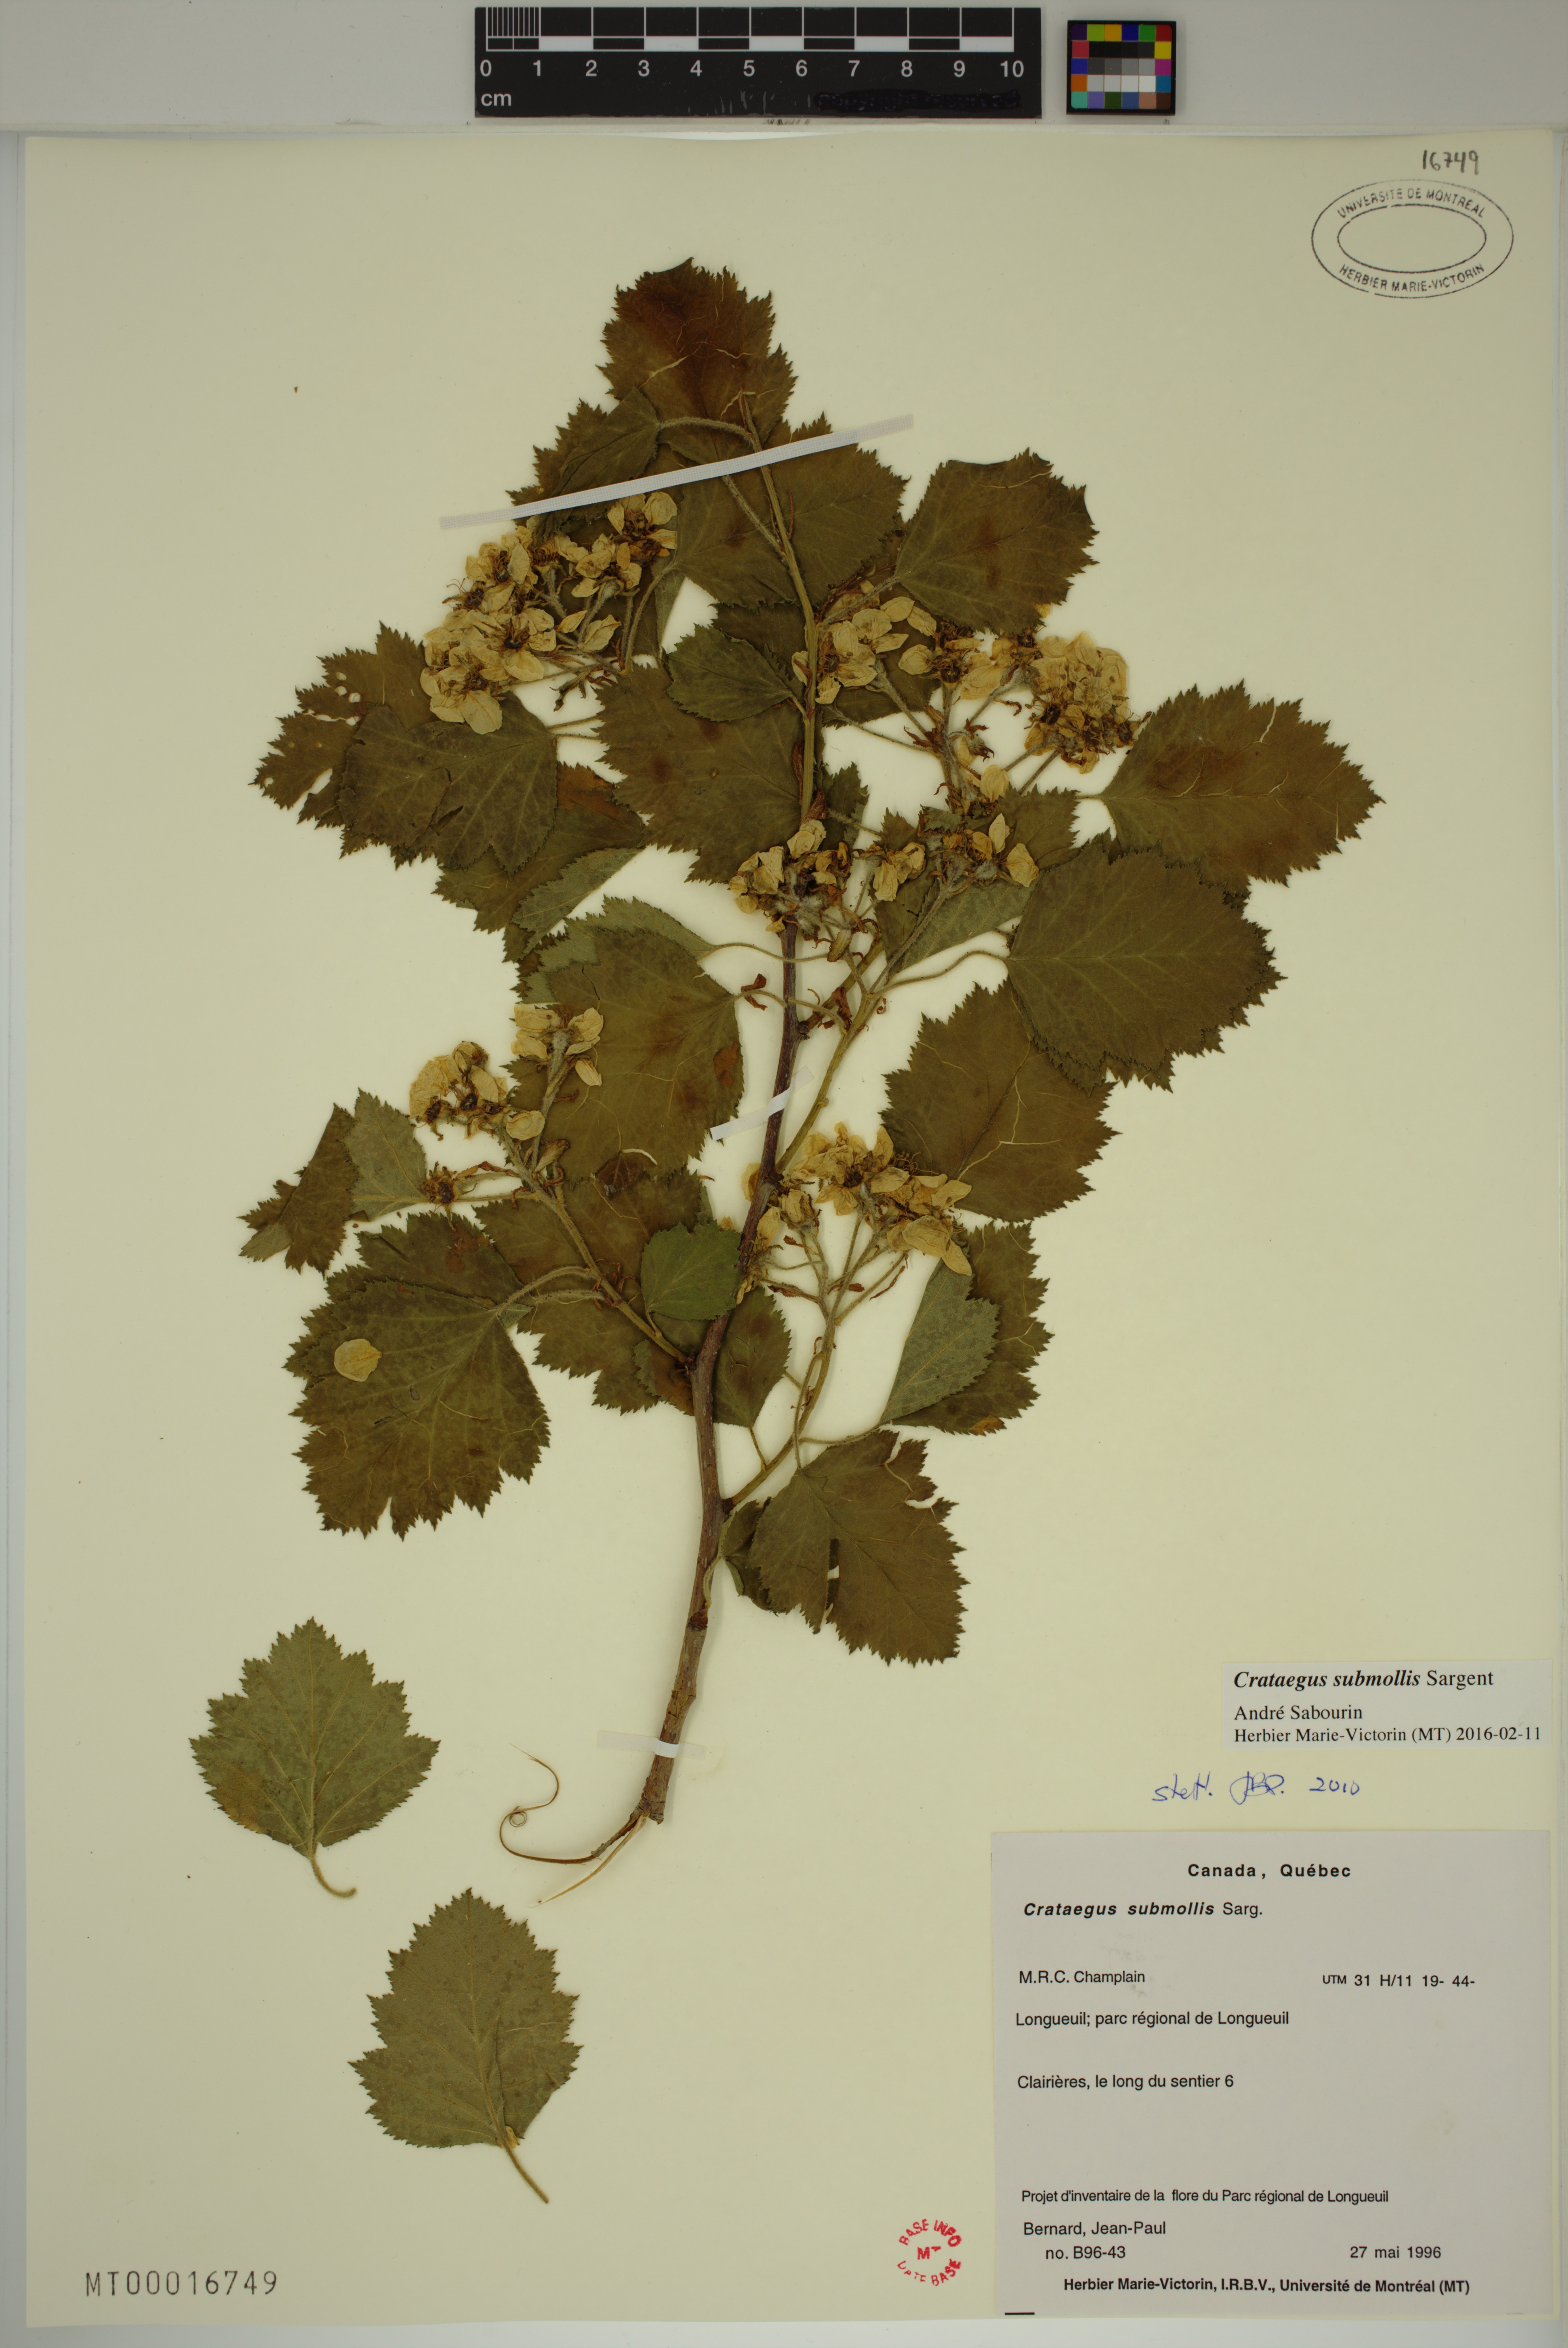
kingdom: Plantae
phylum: Tracheophyta
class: Magnoliopsida
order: Rosales
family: Rosaceae
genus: Crataegus
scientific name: Crataegus submollis
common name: Hairy cockspurthorn
